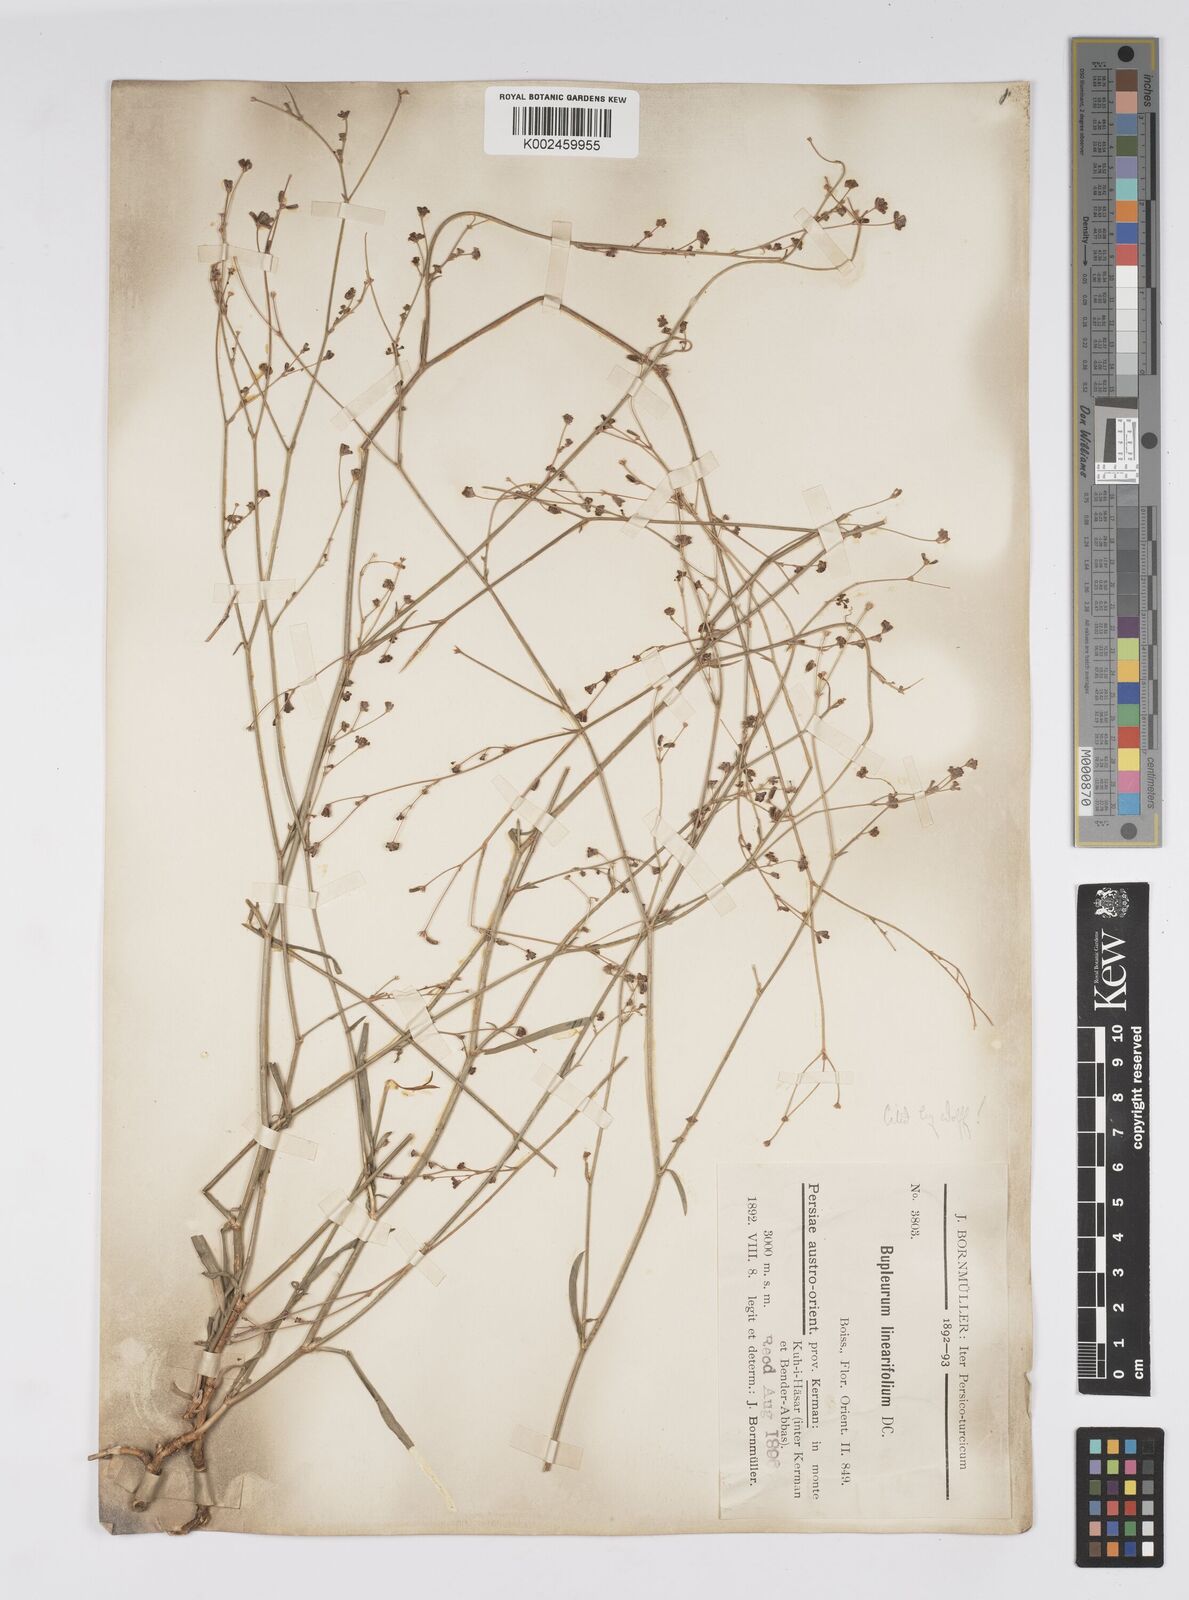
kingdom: Plantae
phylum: Tracheophyta
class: Magnoliopsida
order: Apiales
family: Apiaceae
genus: Bupleurum
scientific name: Bupleurum falcatum
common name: Sickle-leaved hare's-ear
